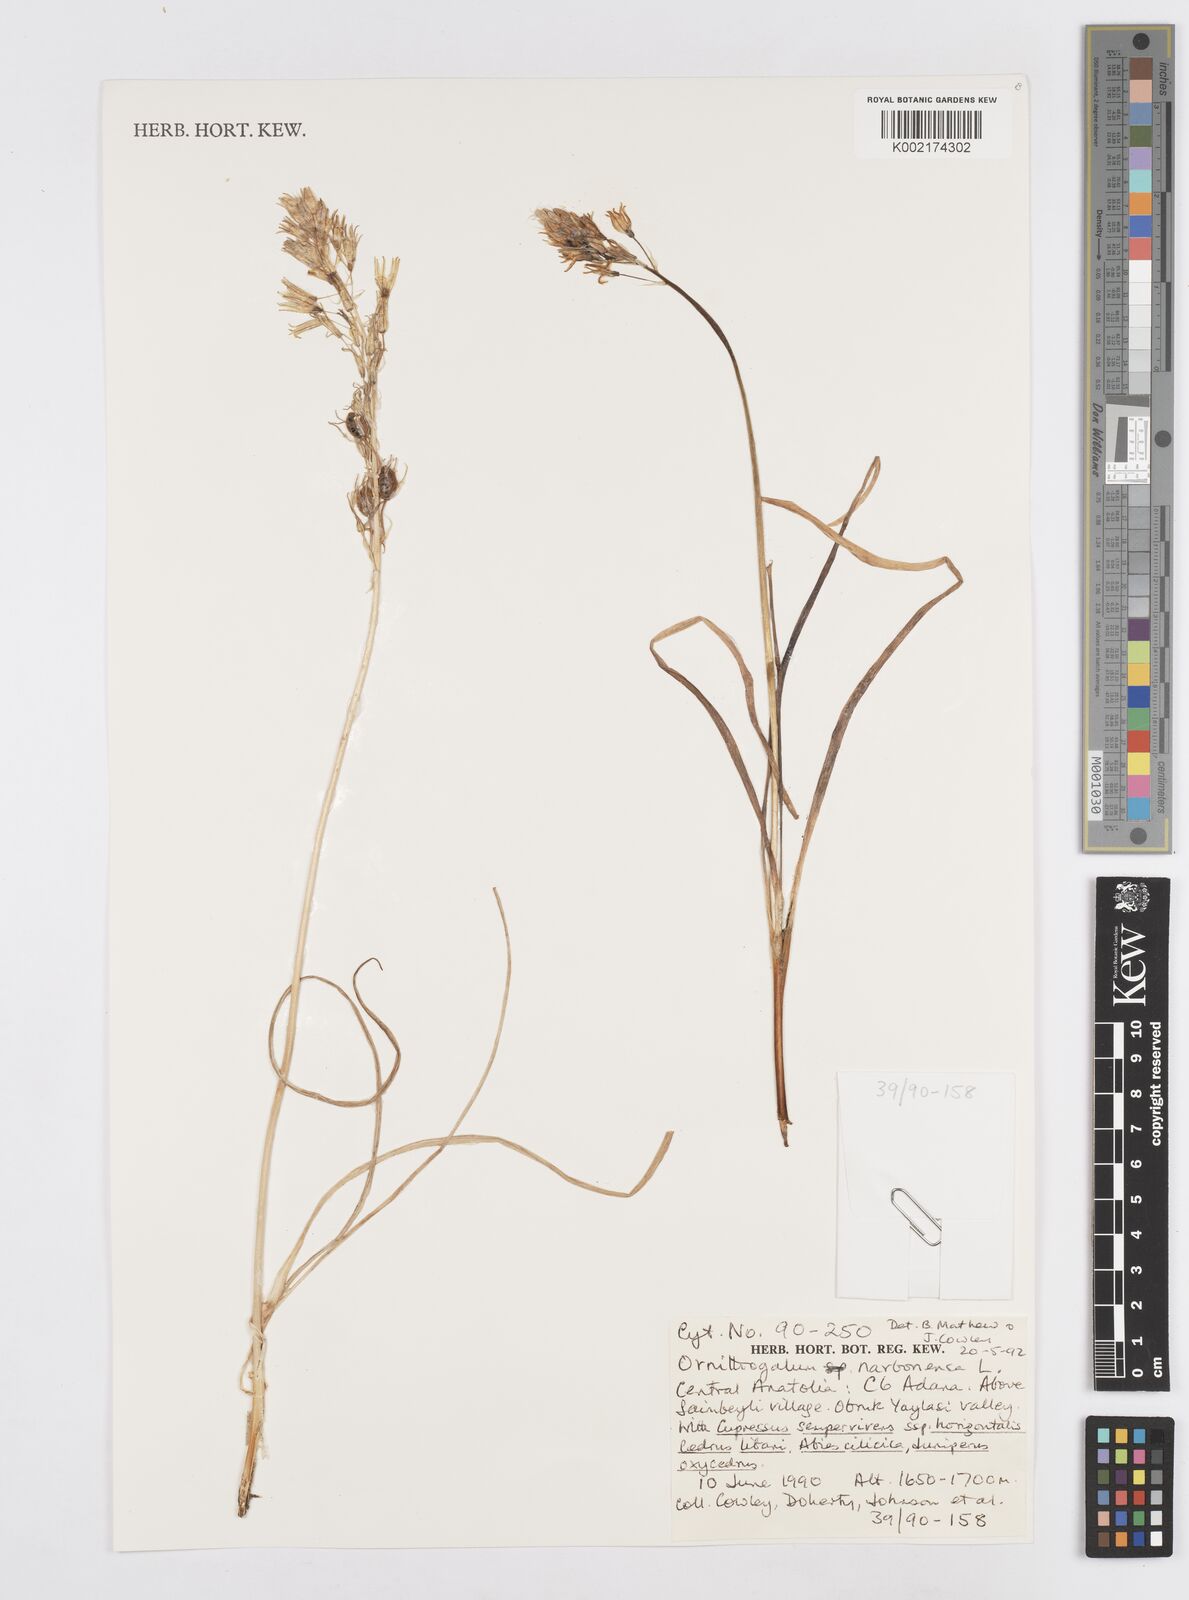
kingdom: Plantae
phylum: Tracheophyta
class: Liliopsida
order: Asparagales
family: Asparagaceae
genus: Ornithogalum
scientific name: Ornithogalum narbonense
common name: Bath-asparagus
